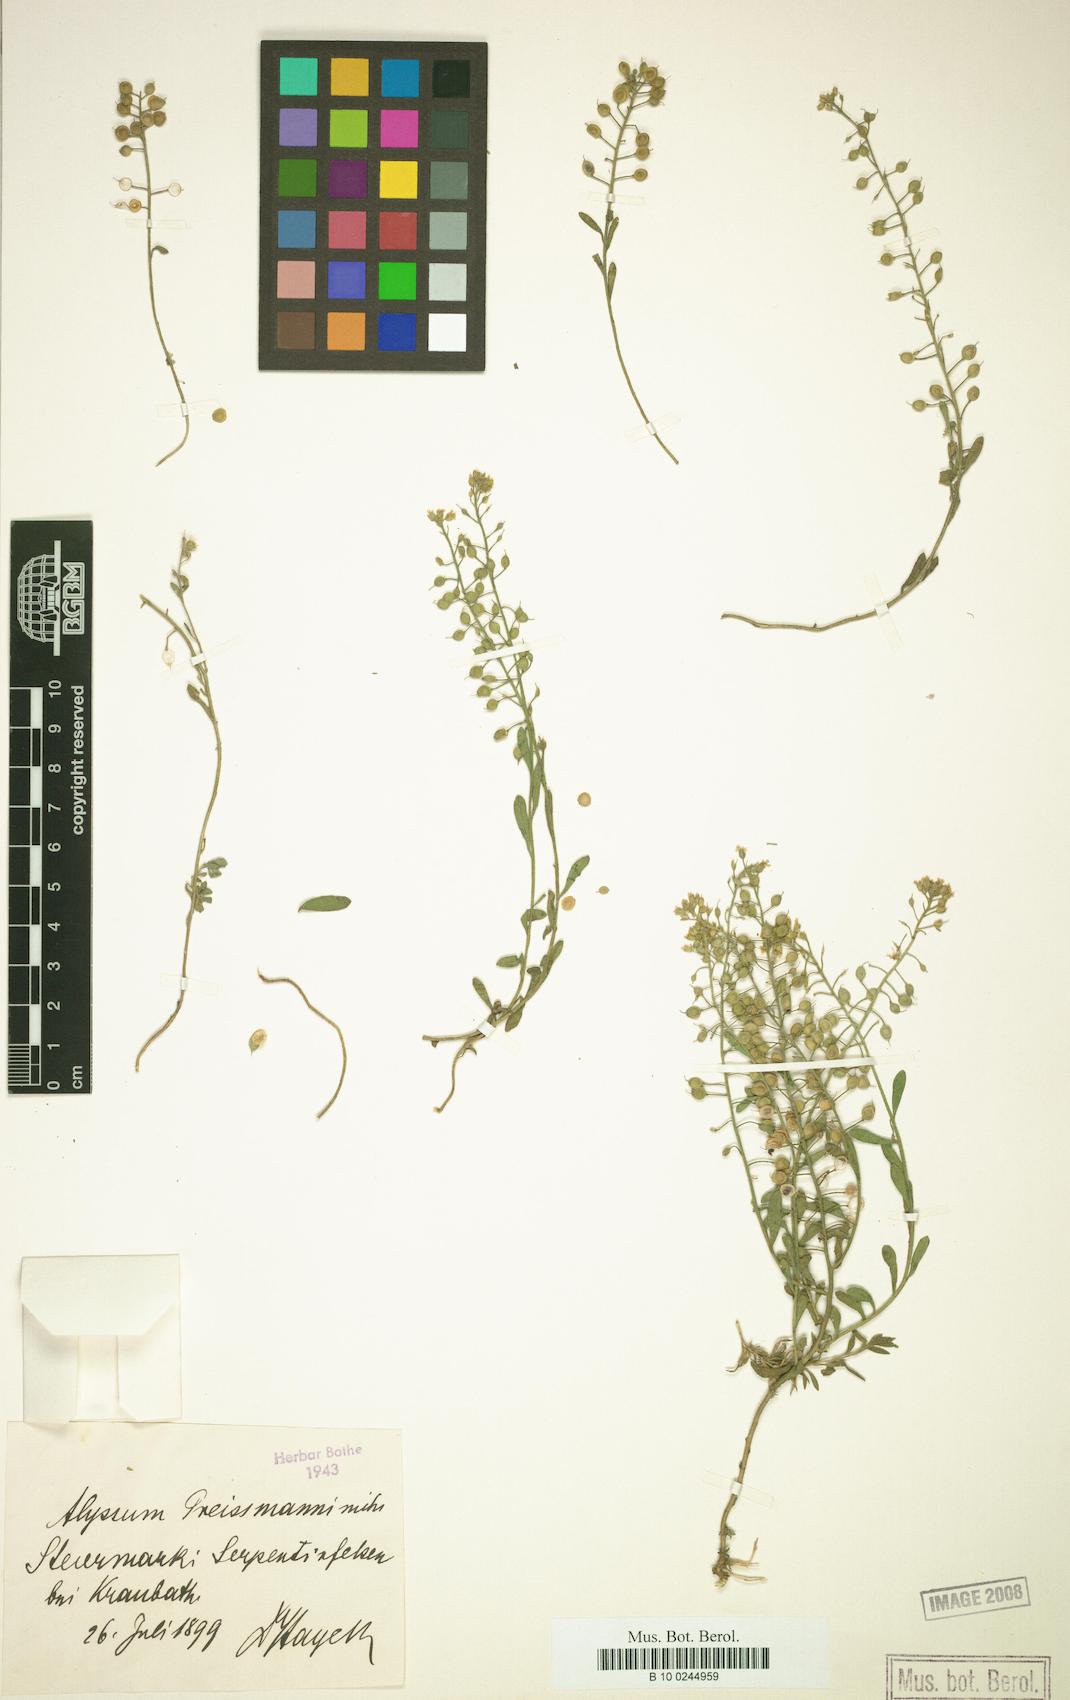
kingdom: Plantae
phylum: Tracheophyta
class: Magnoliopsida
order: Brassicales
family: Brassicaceae
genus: Alyssum
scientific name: Alyssum gmelinii
